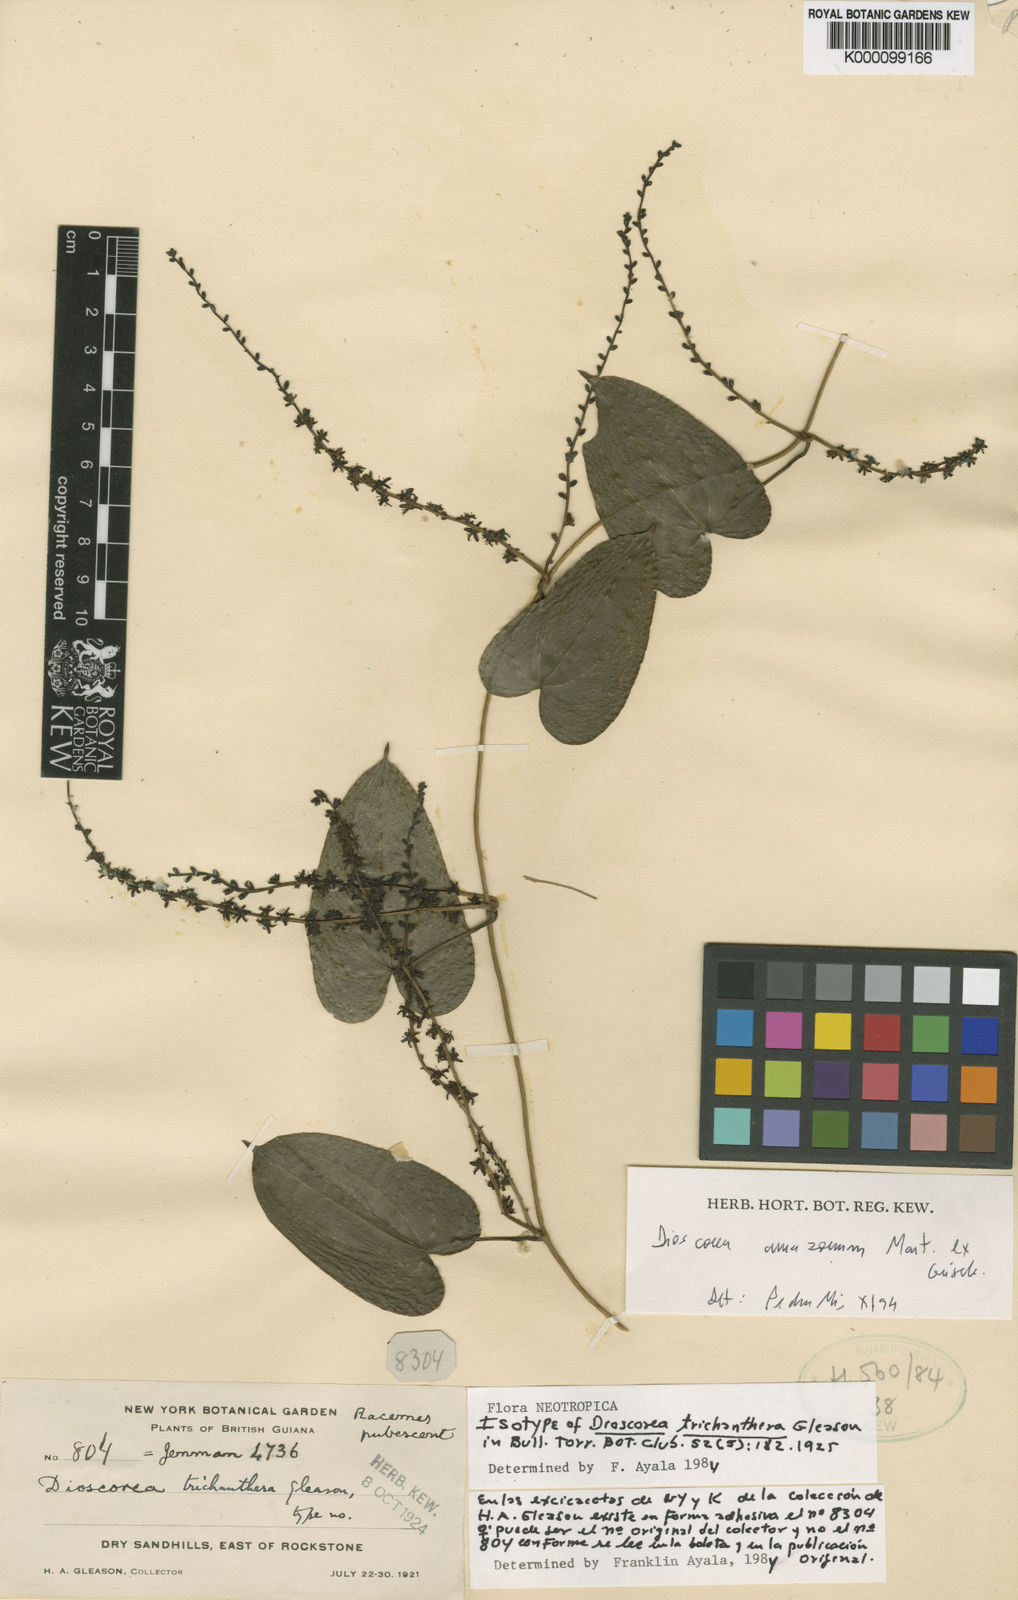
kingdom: Plantae
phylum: Tracheophyta
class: Liliopsida
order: Dioscoreales
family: Dioscoreaceae
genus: Dioscorea
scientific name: Dioscorea trichanthera
